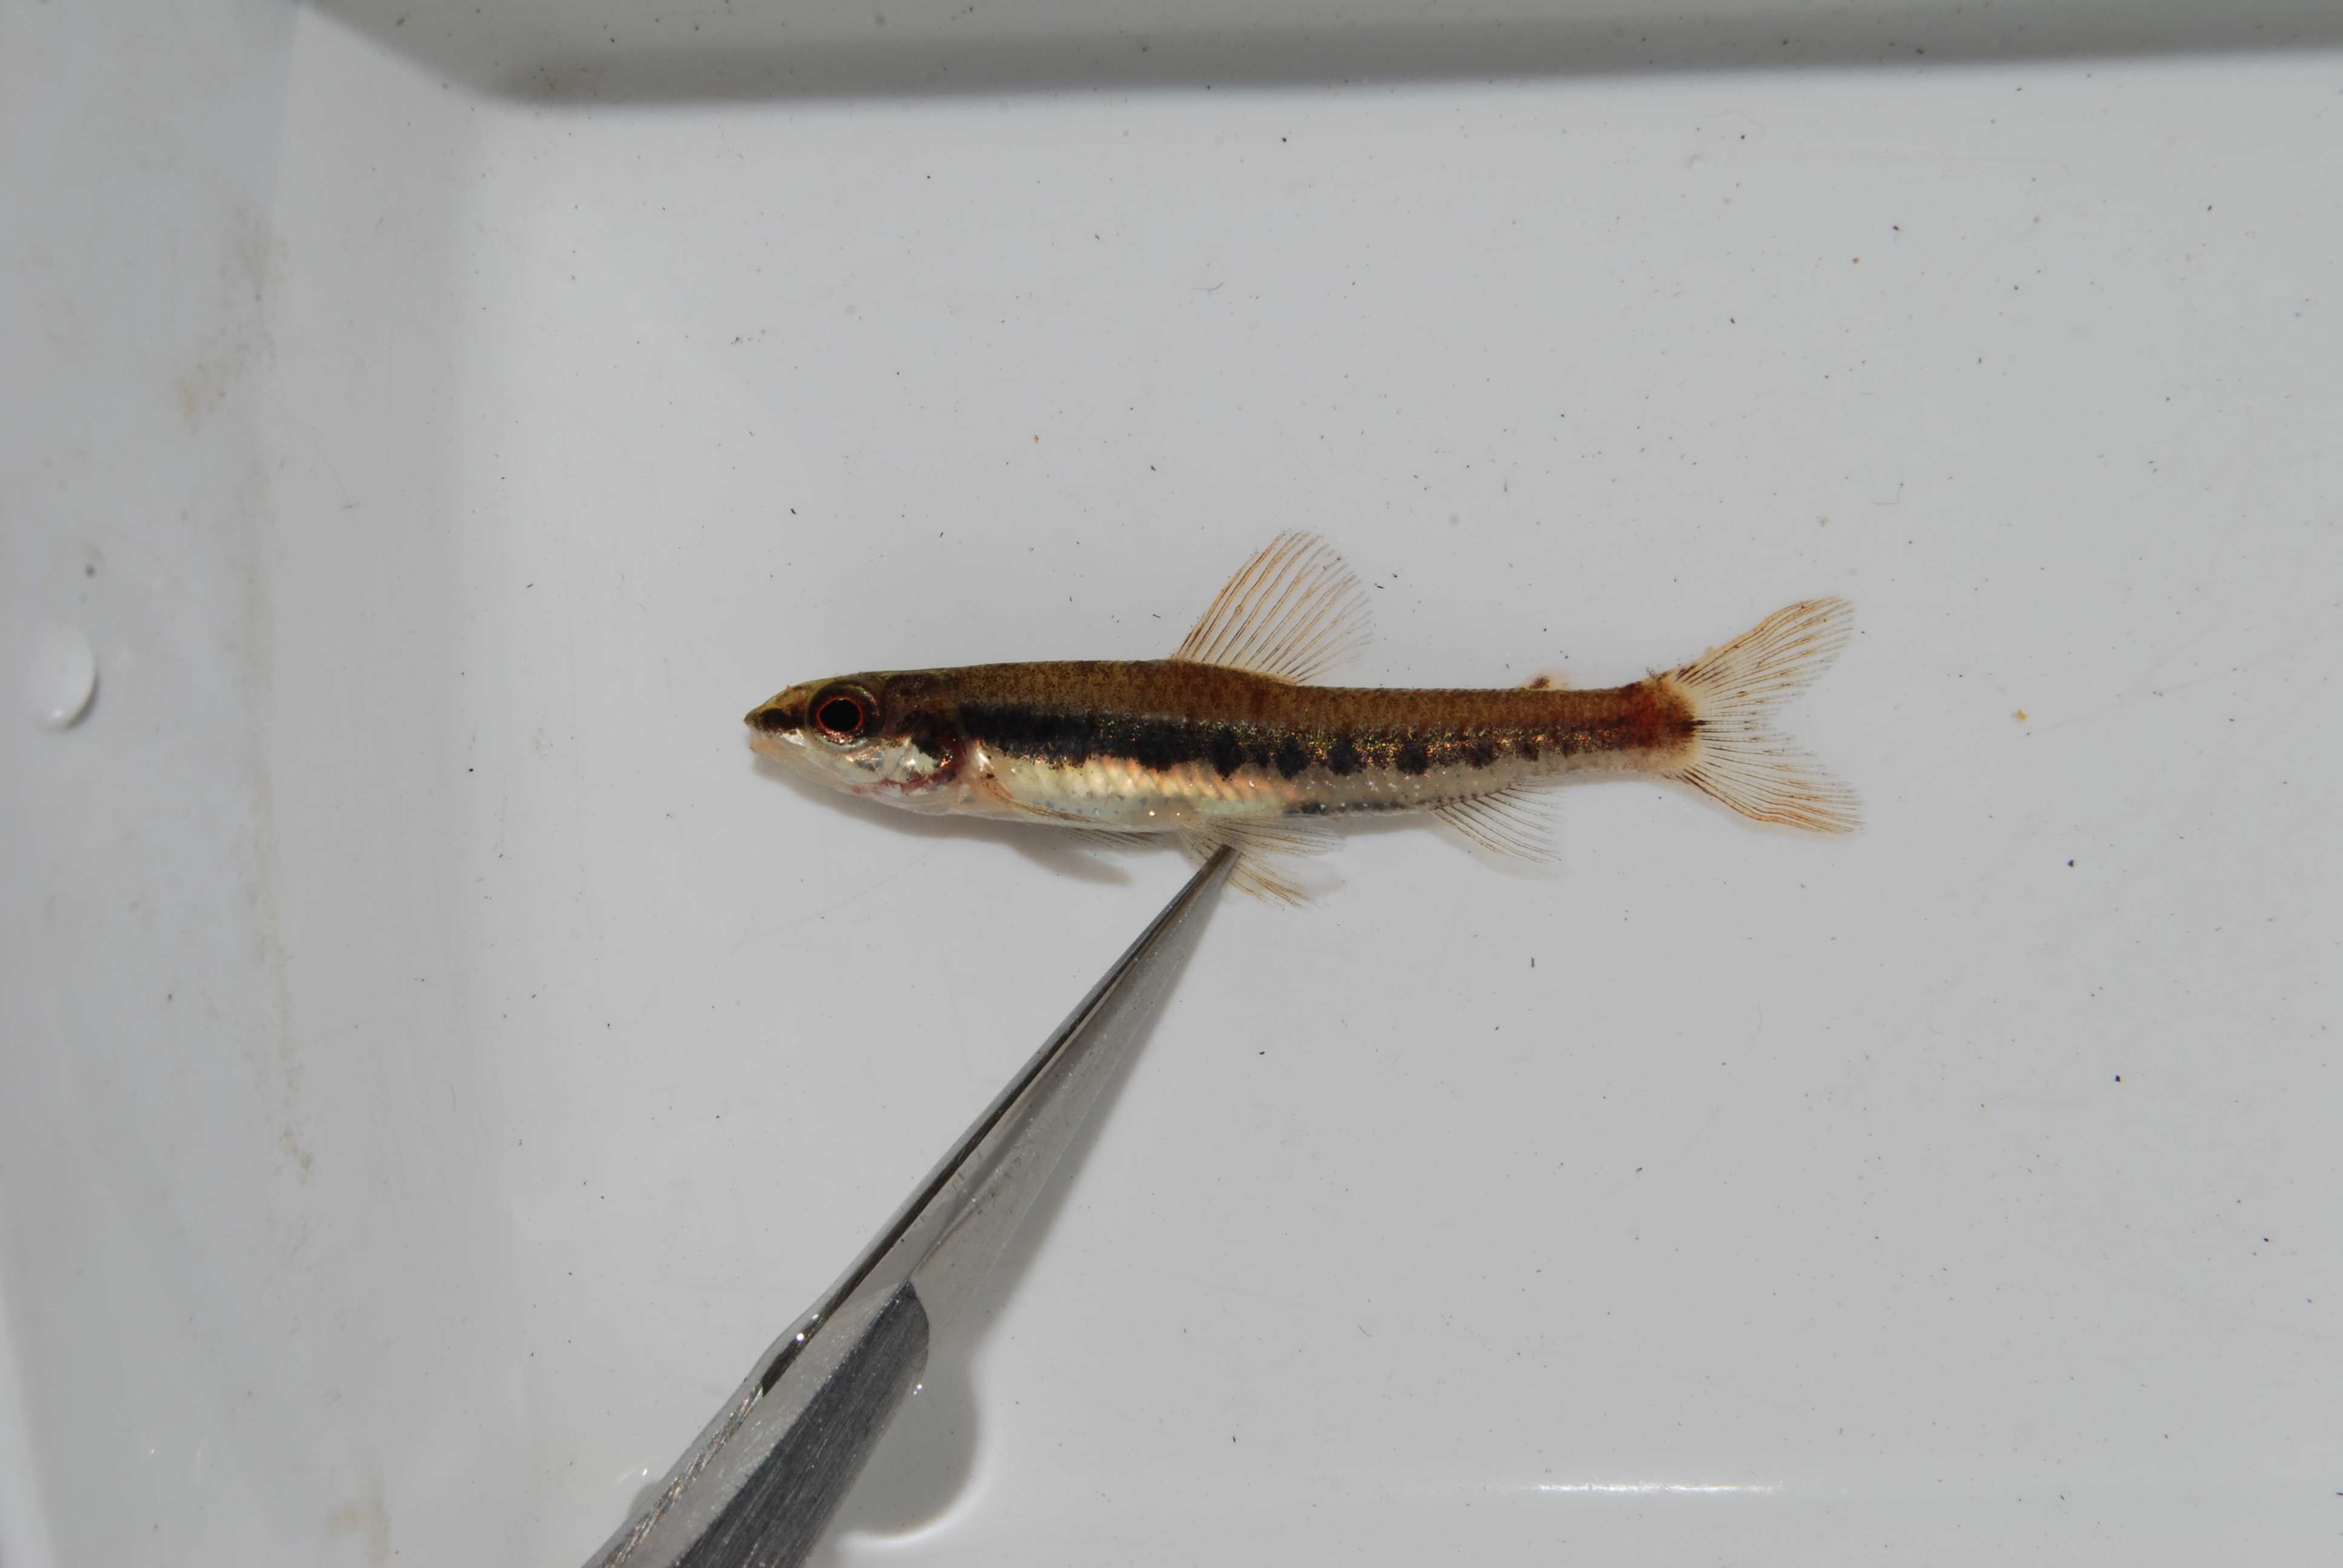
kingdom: Animalia
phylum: Chordata
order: Characiformes
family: Distichodontidae
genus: Nannocharax
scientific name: Nannocharax lineostriatus
